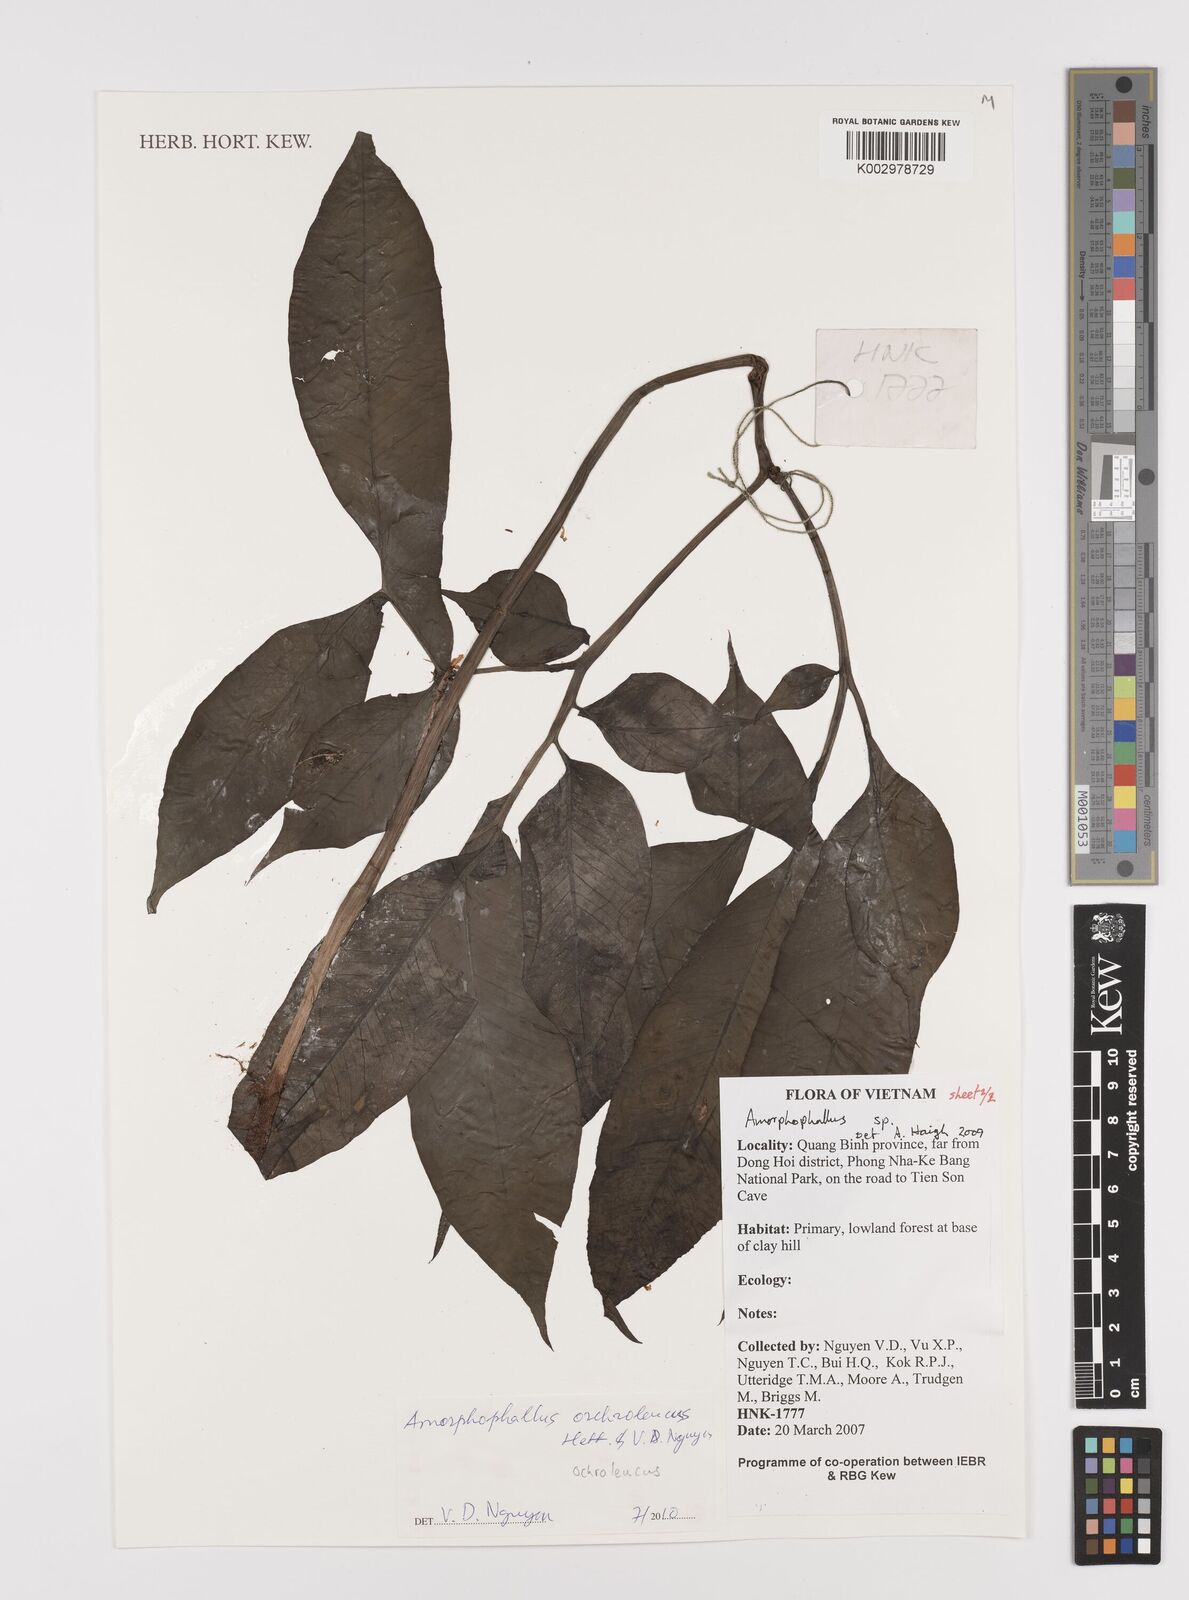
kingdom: Plantae
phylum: Tracheophyta
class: Liliopsida
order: Alismatales
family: Araceae
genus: Amorphophallus
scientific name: Amorphophallus ochroleucus
